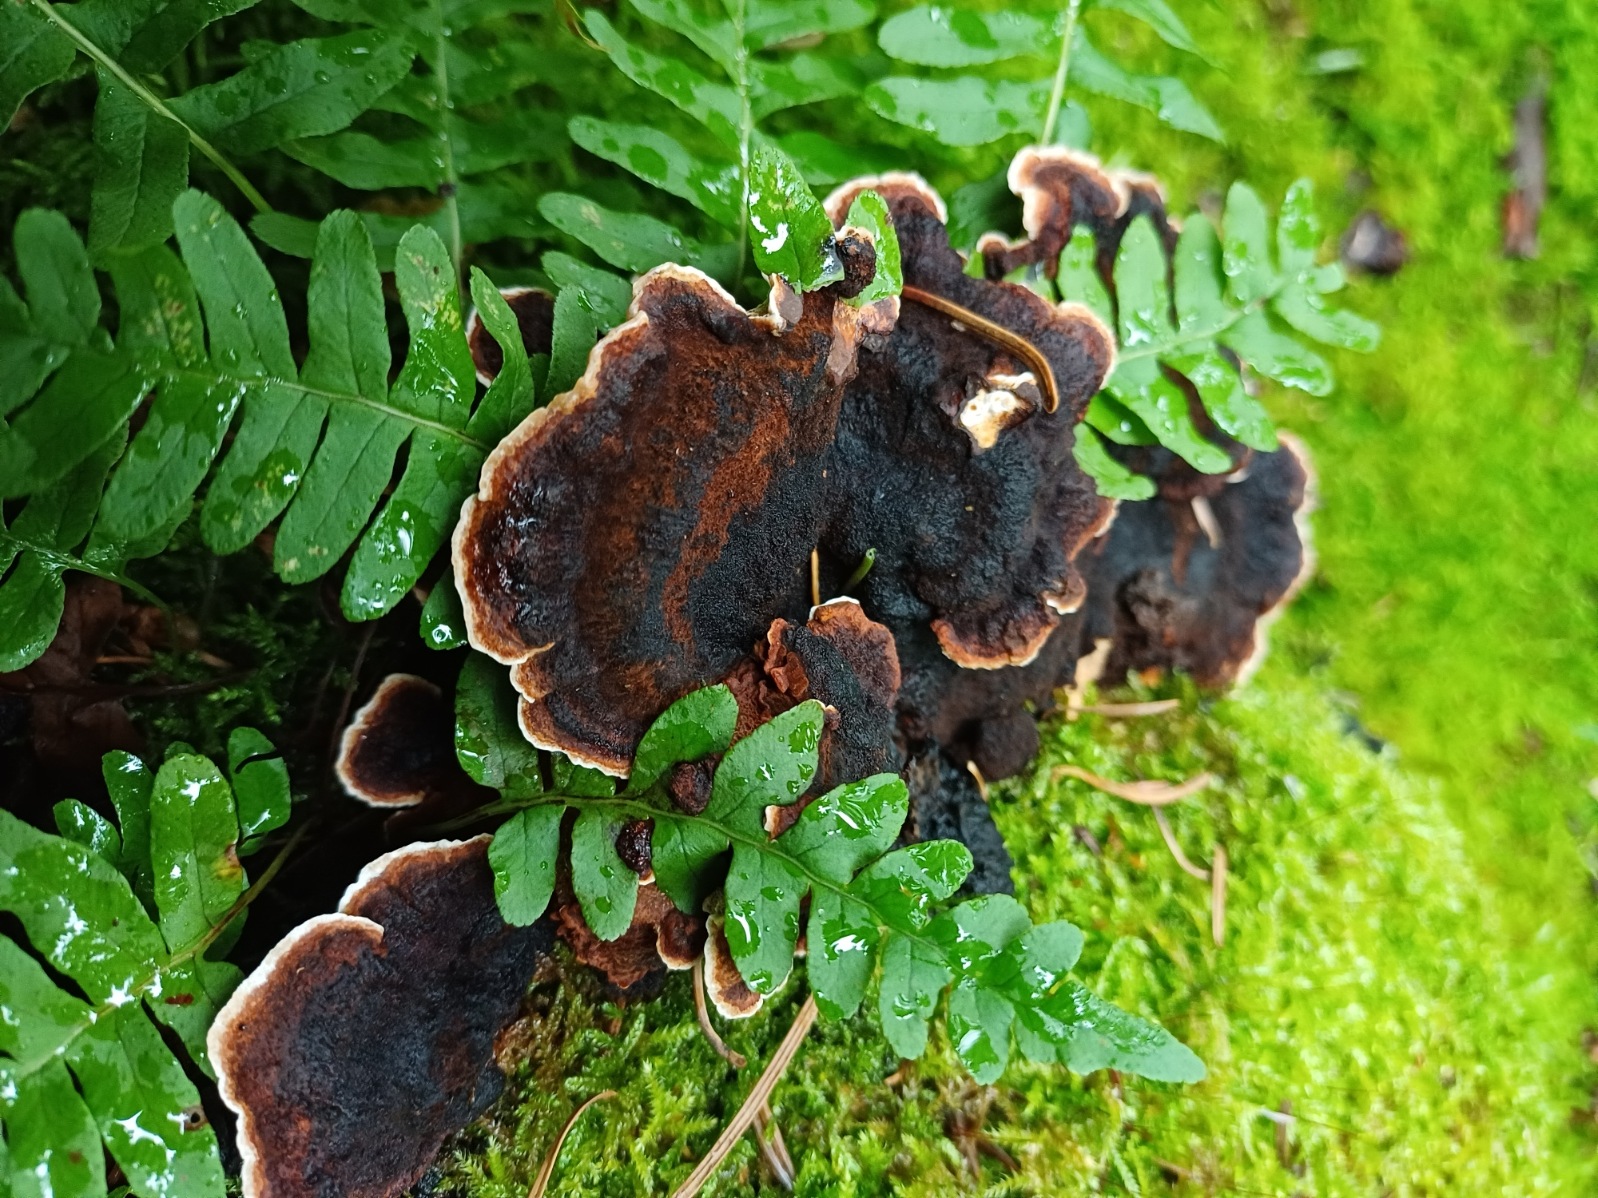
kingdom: Fungi
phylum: Basidiomycota
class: Agaricomycetes
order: Polyporales
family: Ischnodermataceae
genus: Ischnoderma
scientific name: Ischnoderma benzoinum
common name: gran-tjæreporesvamp
